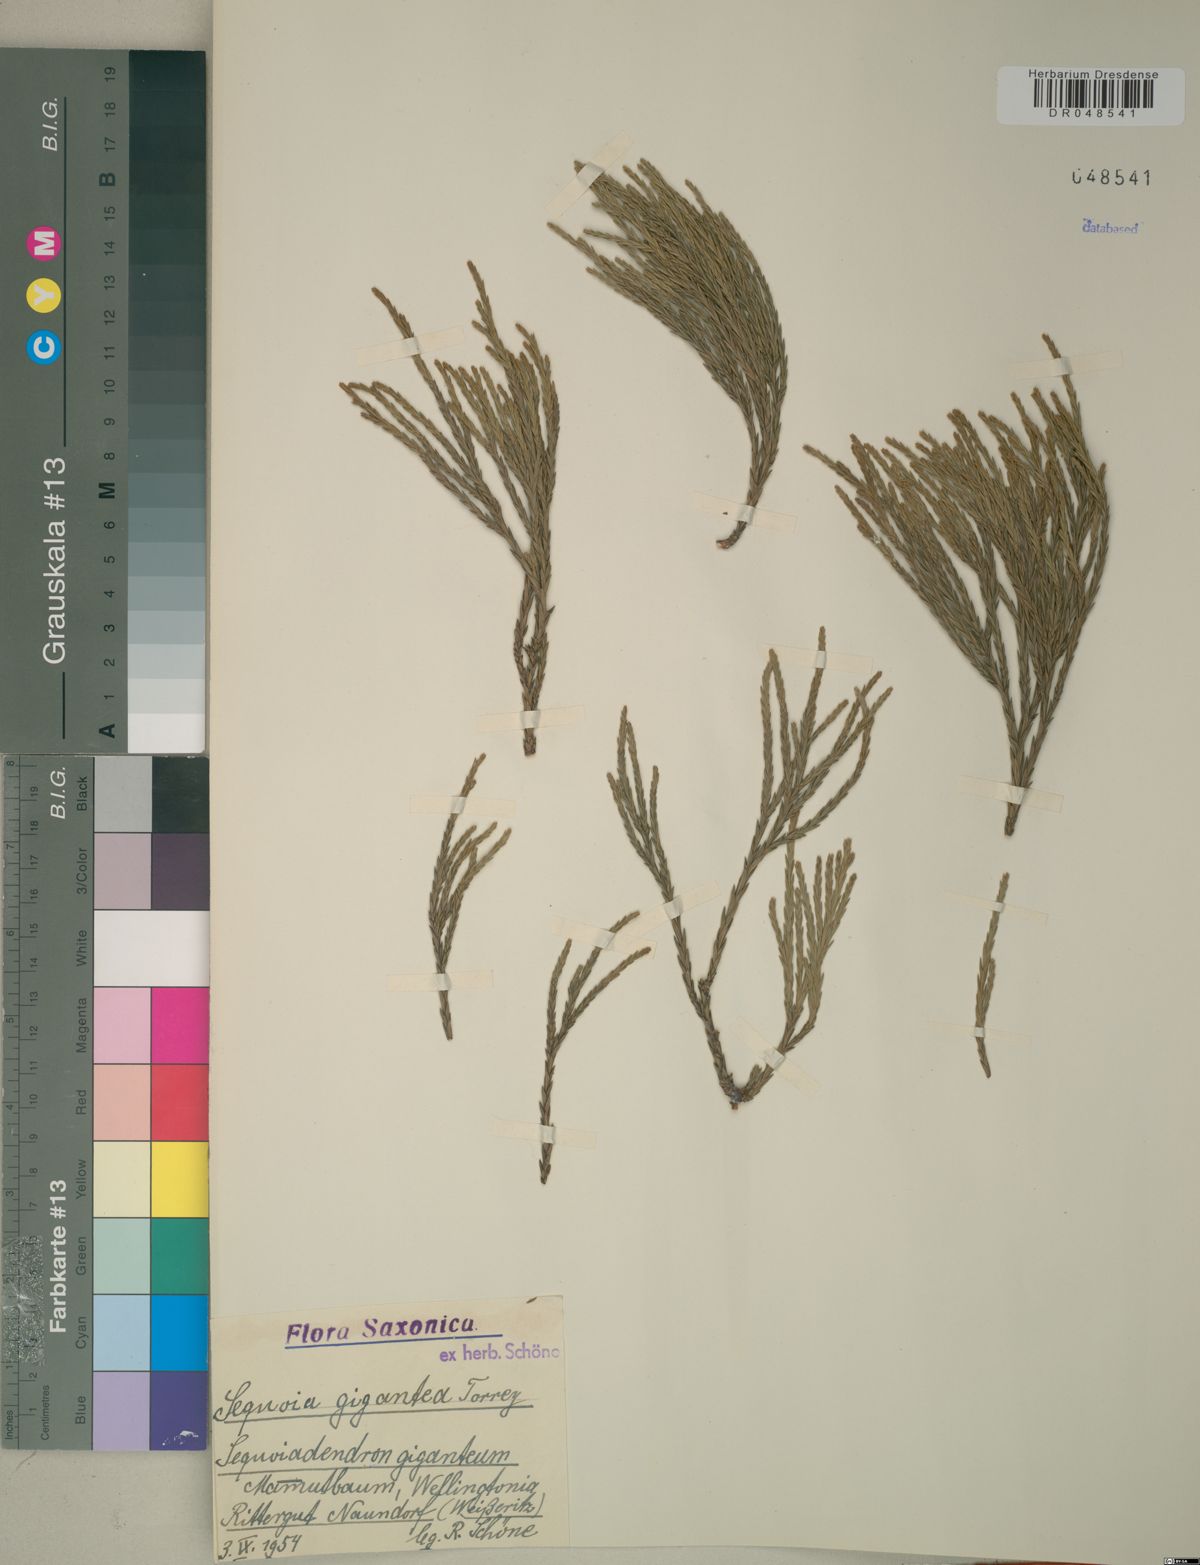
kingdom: Plantae
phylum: Tracheophyta
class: Pinopsida
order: Pinales
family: Cupressaceae
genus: Sequoiadendron
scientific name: Sequoiadendron giganteum
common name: Wellingtonia
